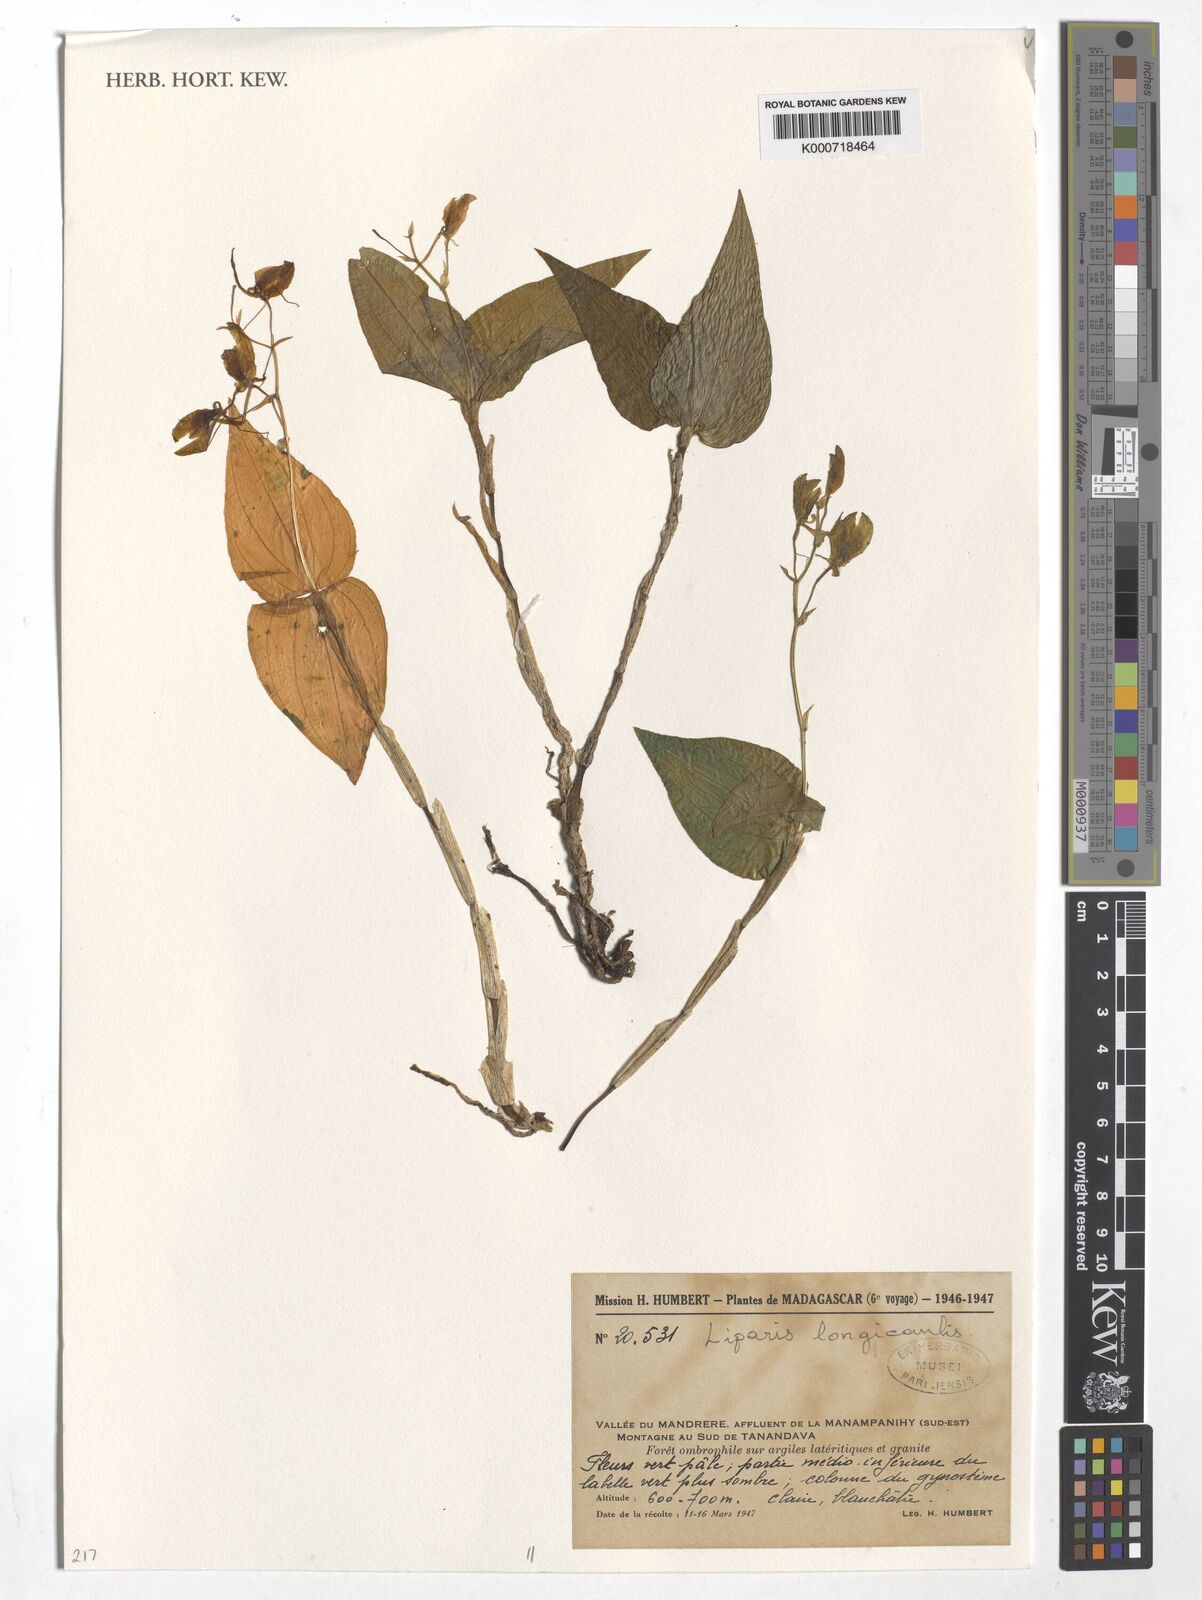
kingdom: Plantae
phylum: Tracheophyta
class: Liliopsida
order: Asparagales
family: Orchidaceae
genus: Liparis
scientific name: Liparis longicaulis
